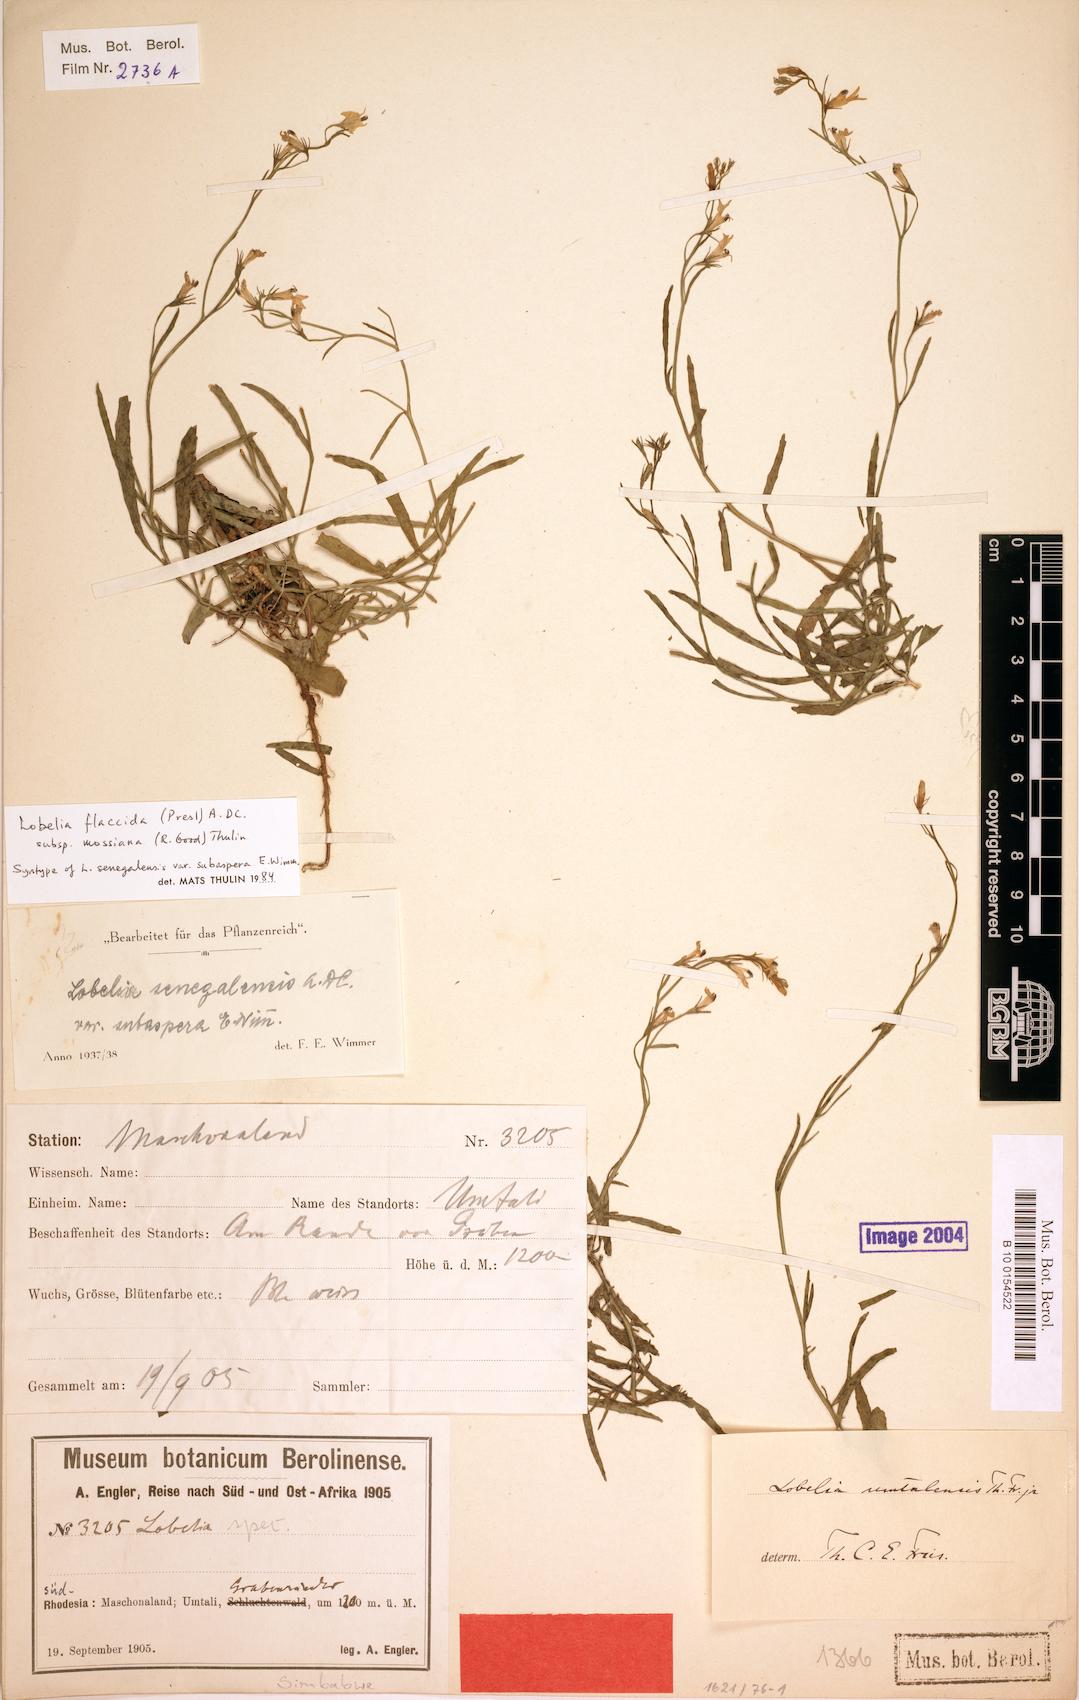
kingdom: Plantae
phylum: Tracheophyta
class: Magnoliopsida
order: Asterales
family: Campanulaceae
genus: Lobelia
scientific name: Lobelia flaccida
